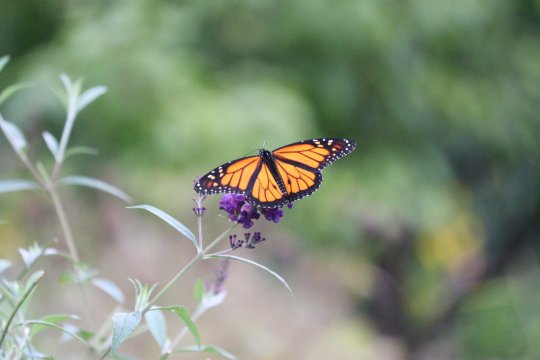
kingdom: Animalia
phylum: Arthropoda
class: Insecta
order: Lepidoptera
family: Nymphalidae
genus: Danaus
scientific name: Danaus plexippus
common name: Monarch
